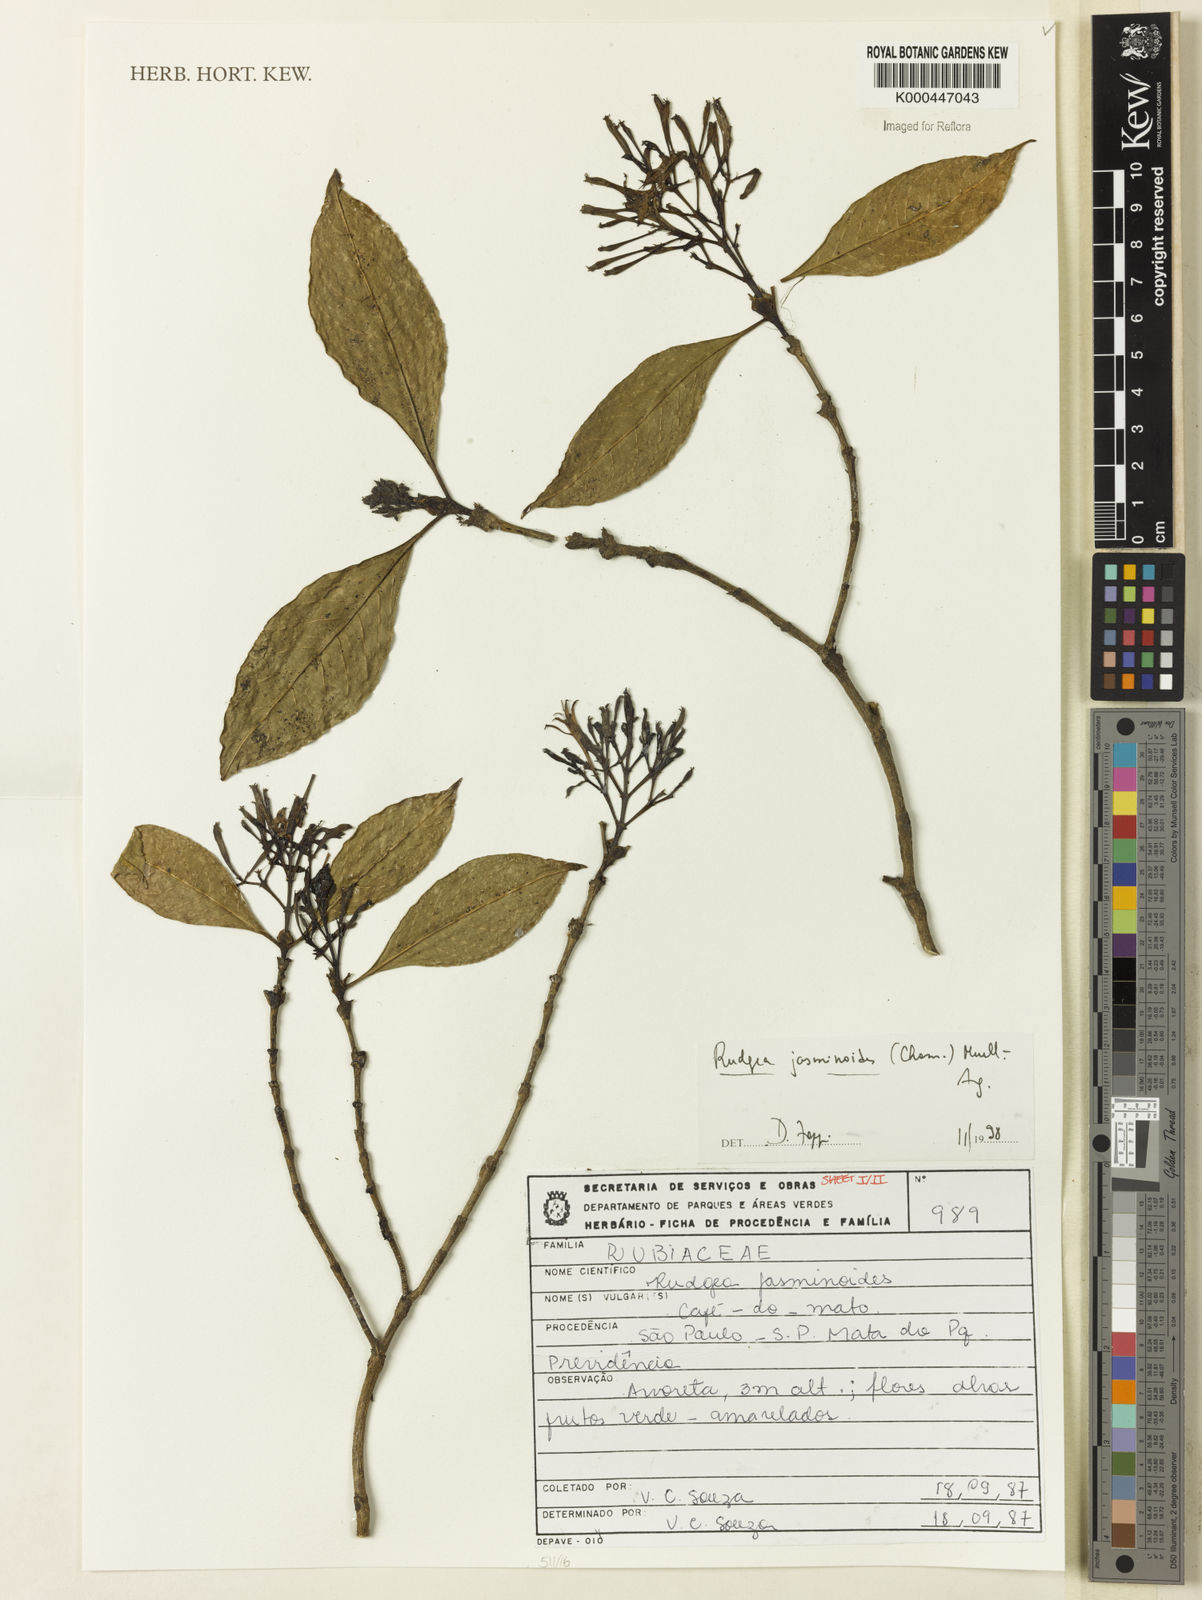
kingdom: Plantae
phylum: Tracheophyta
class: Magnoliopsida
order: Gentianales
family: Rubiaceae
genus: Rudgea
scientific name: Rudgea jasminoides
